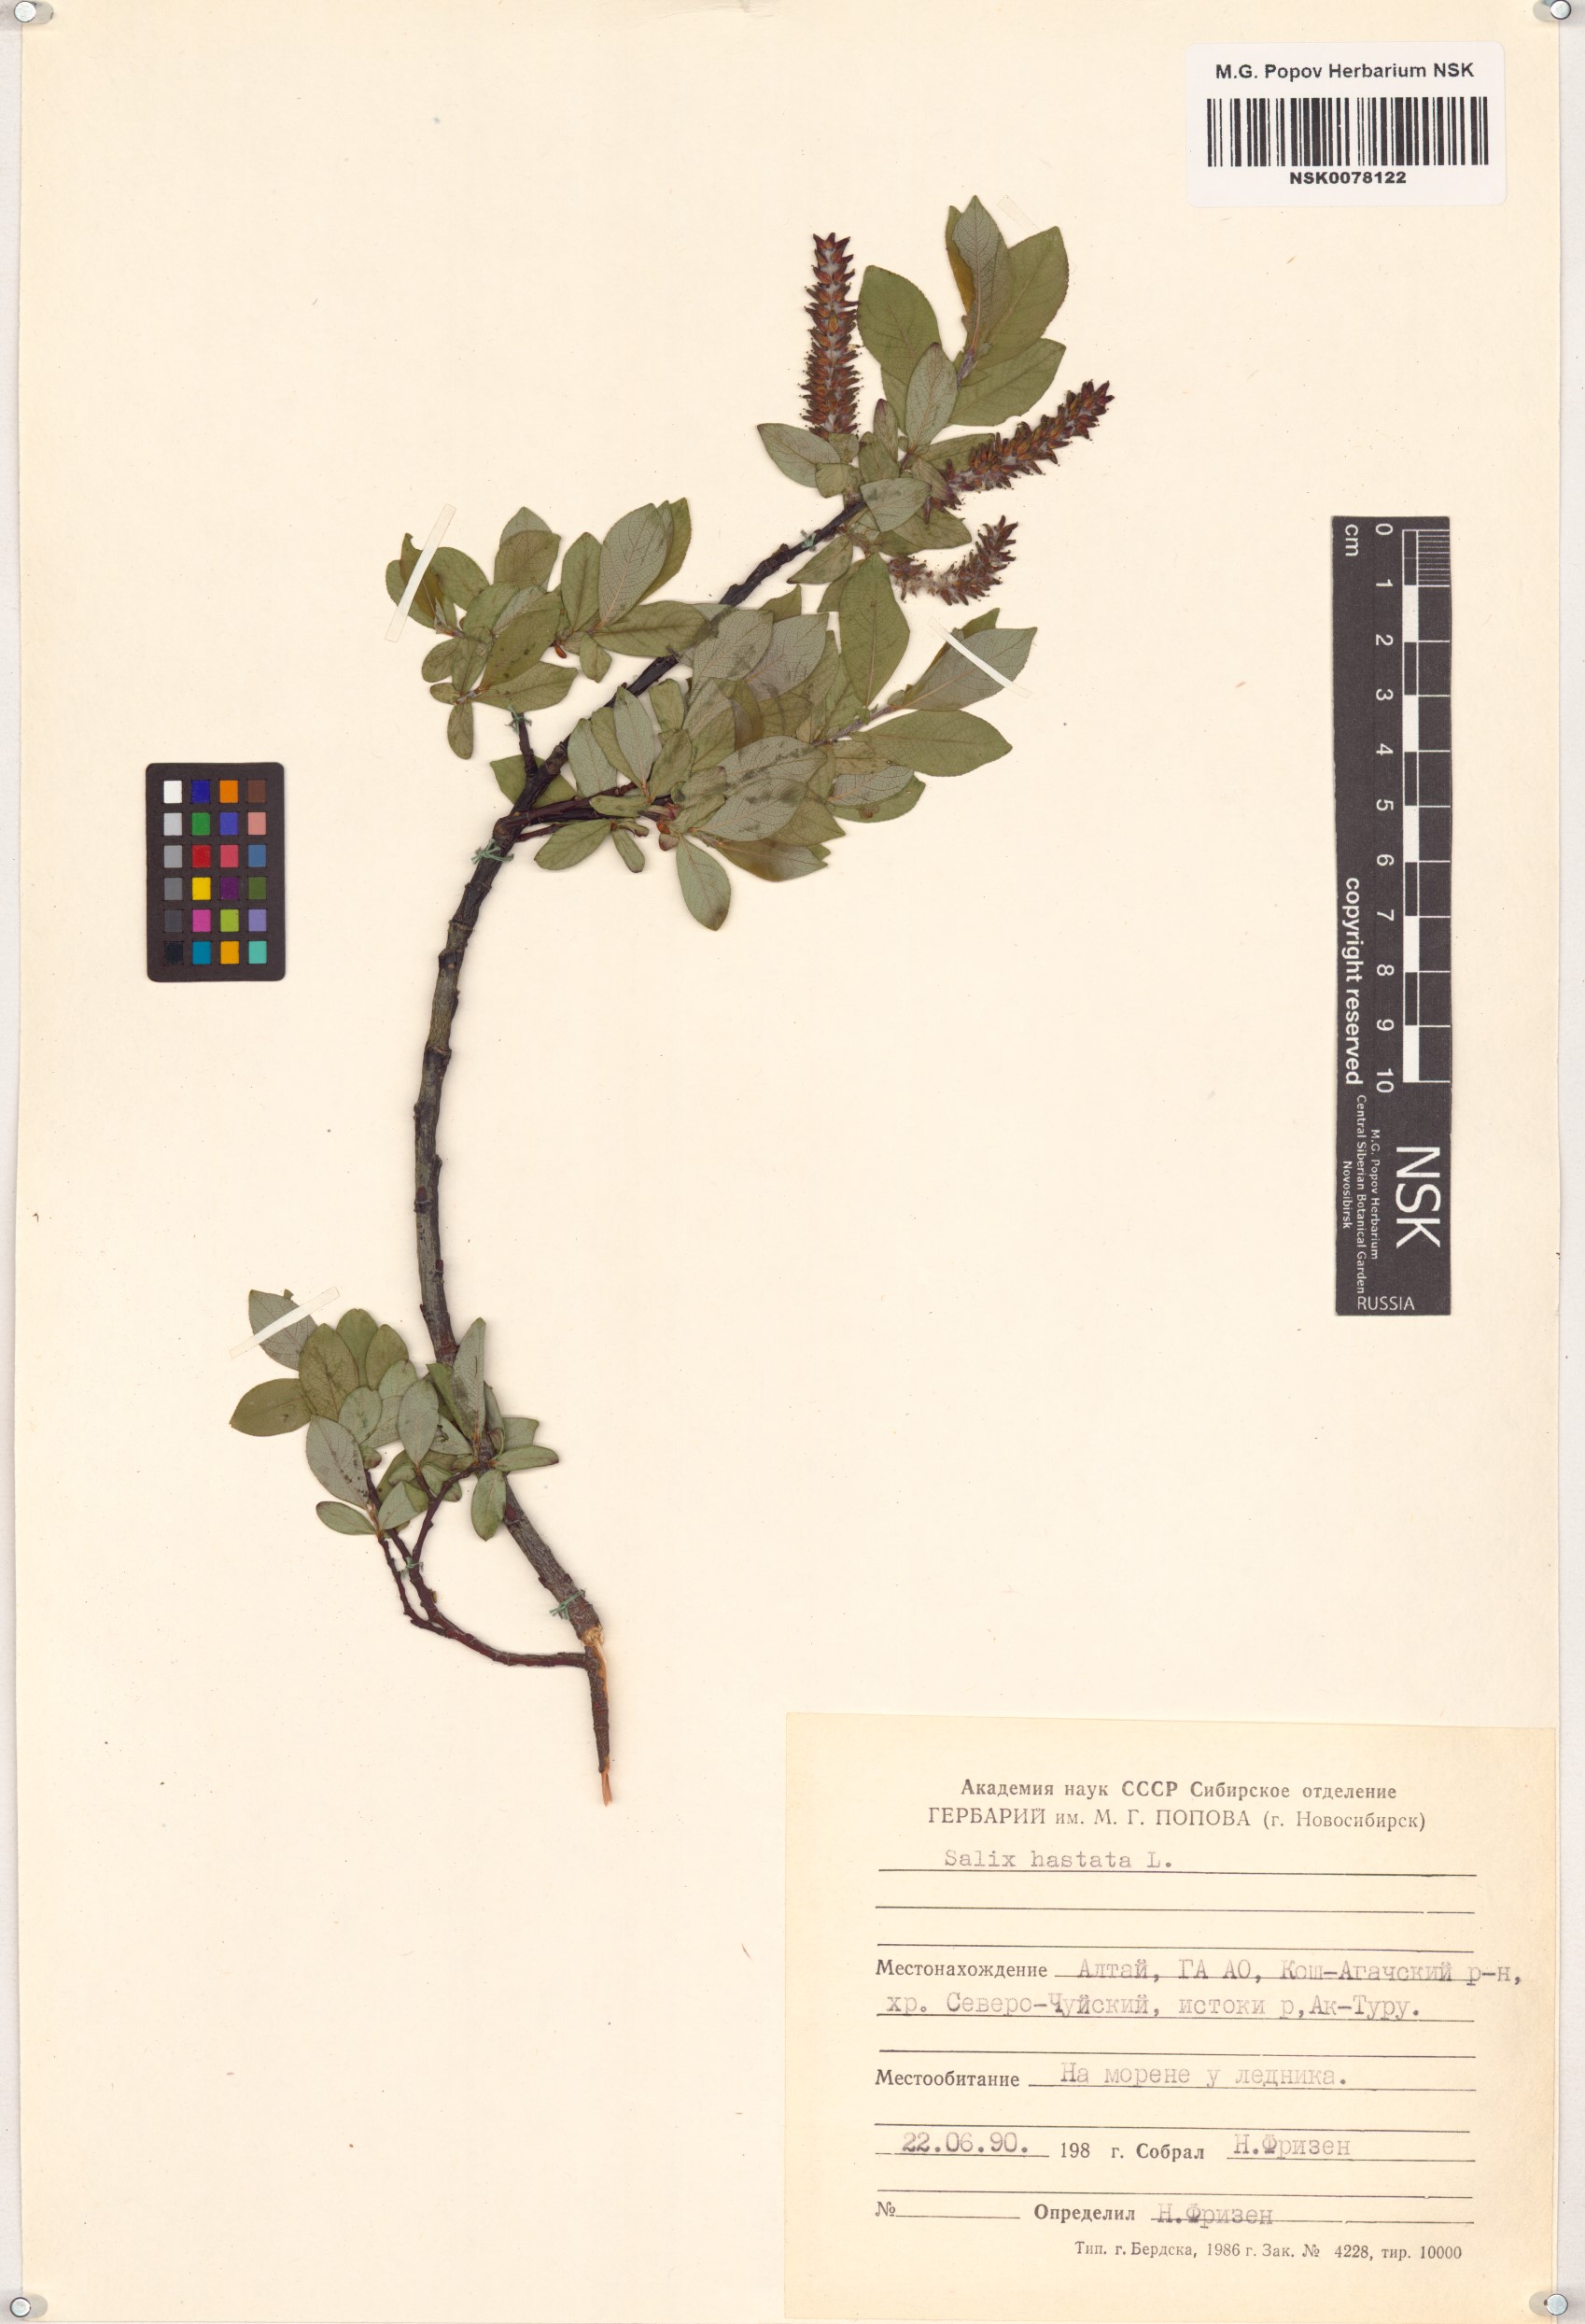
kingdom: Plantae
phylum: Tracheophyta
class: Magnoliopsida
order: Malpighiales
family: Salicaceae
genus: Salix
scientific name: Salix hastata
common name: Halberd willow
